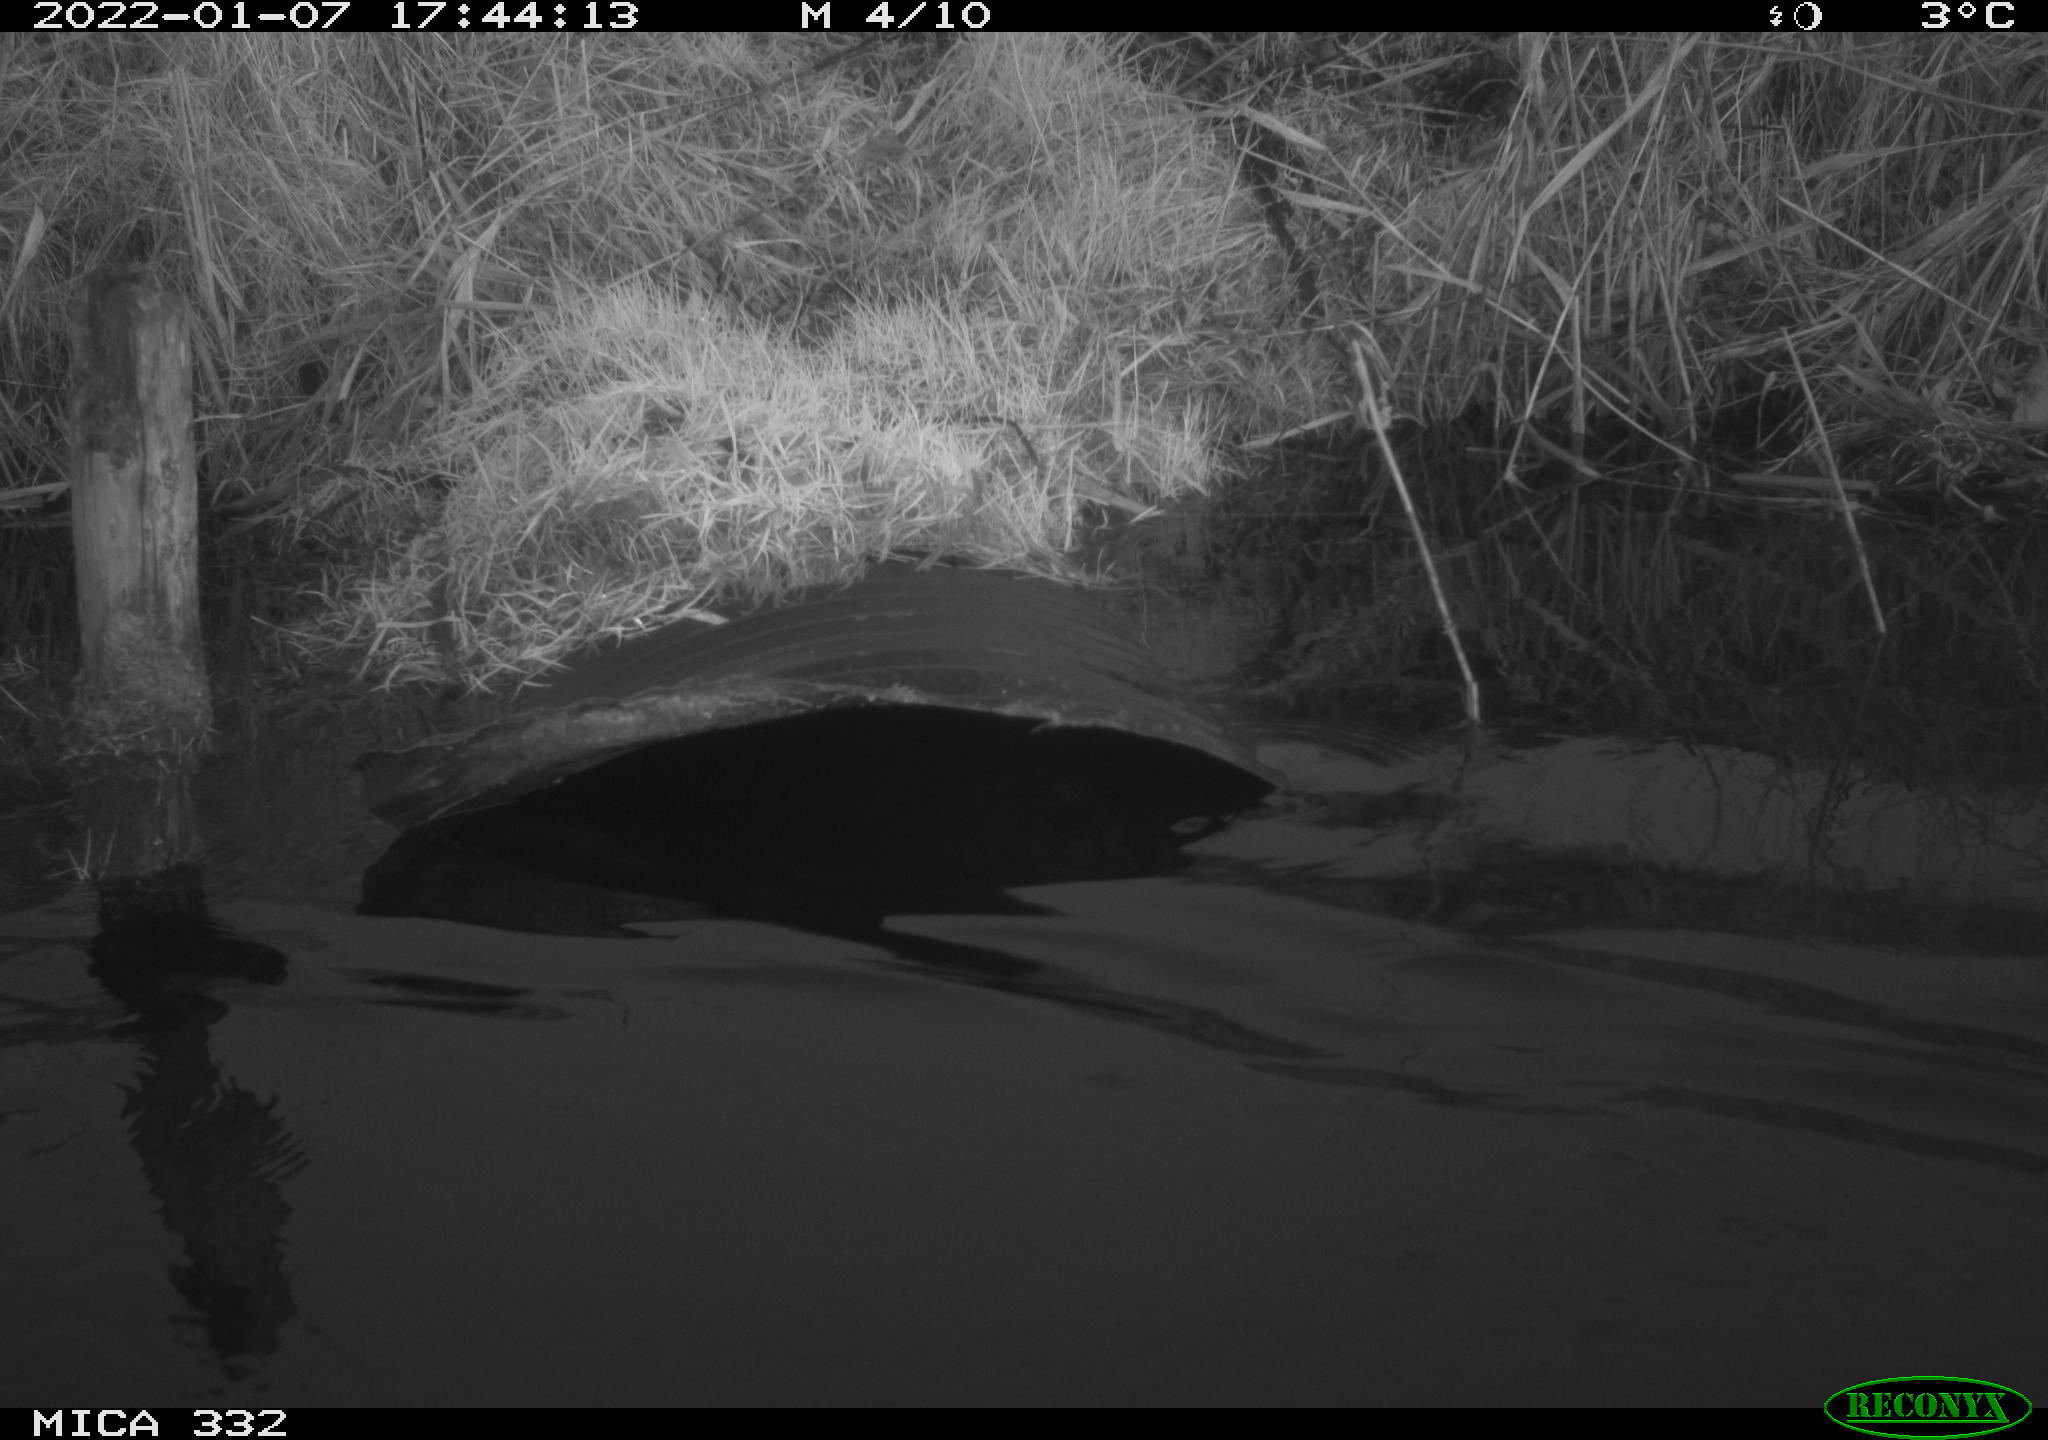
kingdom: Animalia
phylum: Chordata
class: Aves
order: Anseriformes
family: Anatidae
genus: Cygnus
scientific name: Cygnus olor
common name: Mute swan
